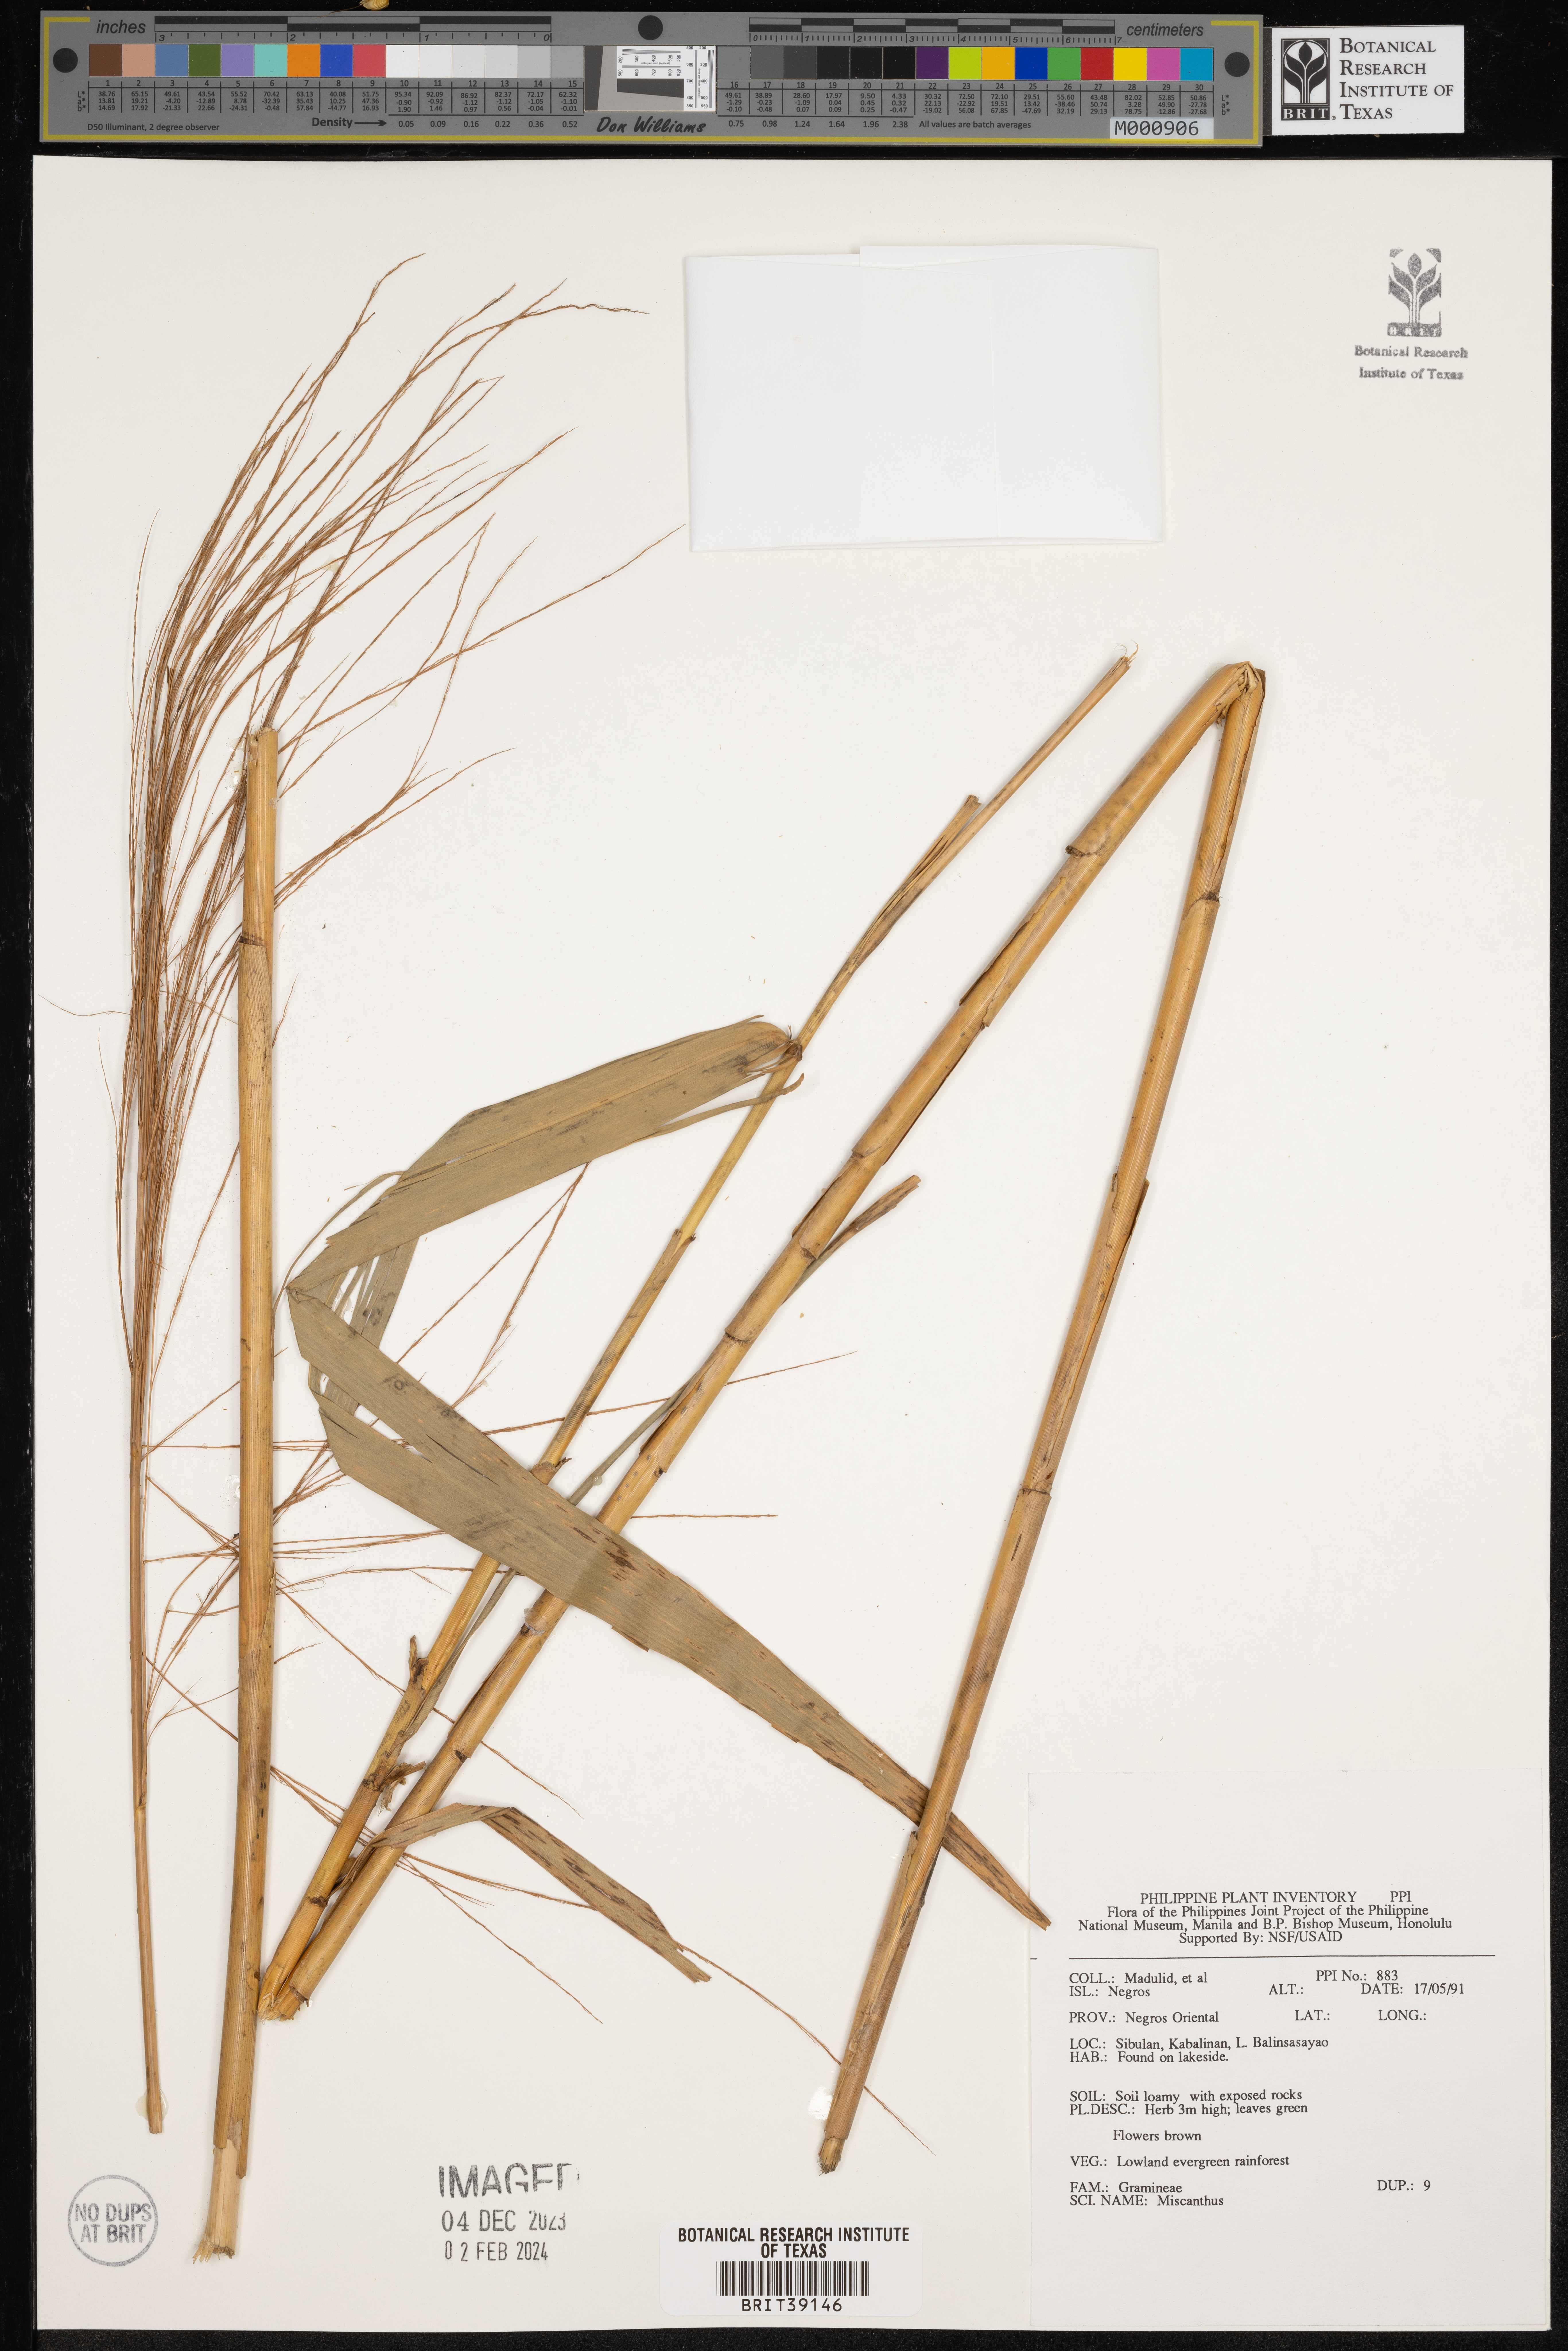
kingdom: Plantae
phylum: Tracheophyta
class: Liliopsida
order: Poales
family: Poaceae
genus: Miscanthus
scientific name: Miscanthus
